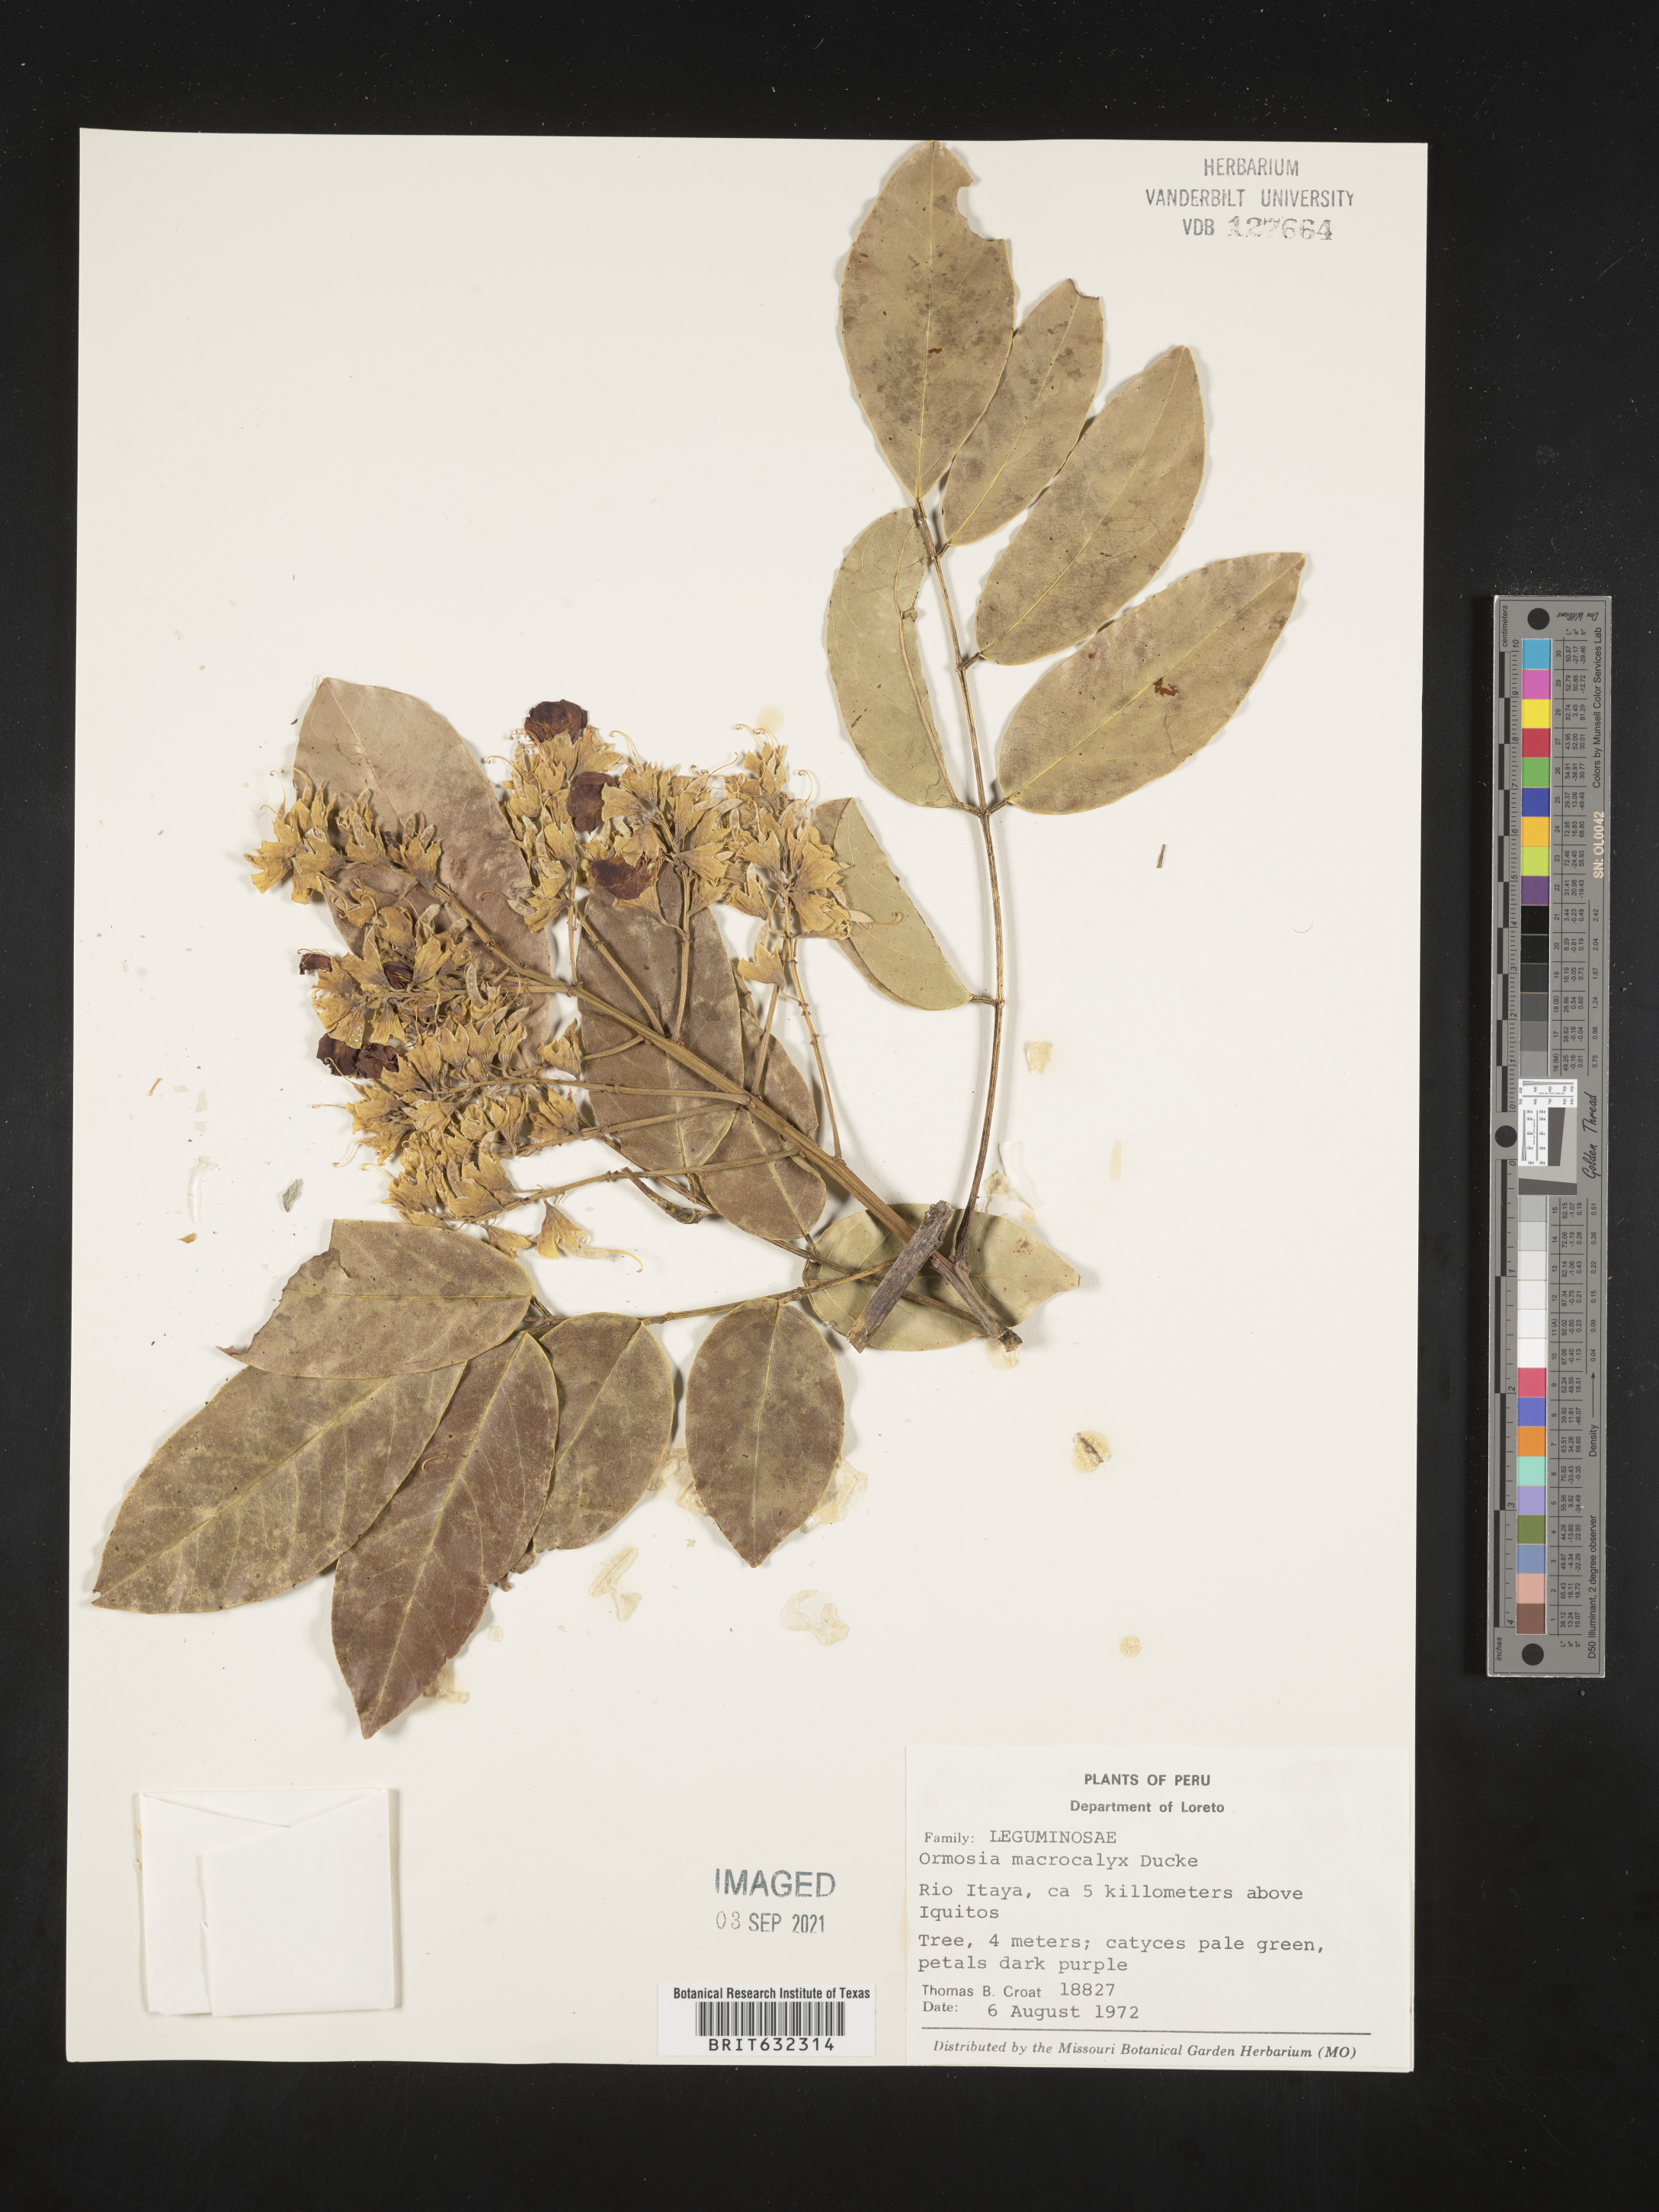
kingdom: Plantae
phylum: Tracheophyta
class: Magnoliopsida
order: Fabales
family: Fabaceae
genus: Ormosia
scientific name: Ormosia
